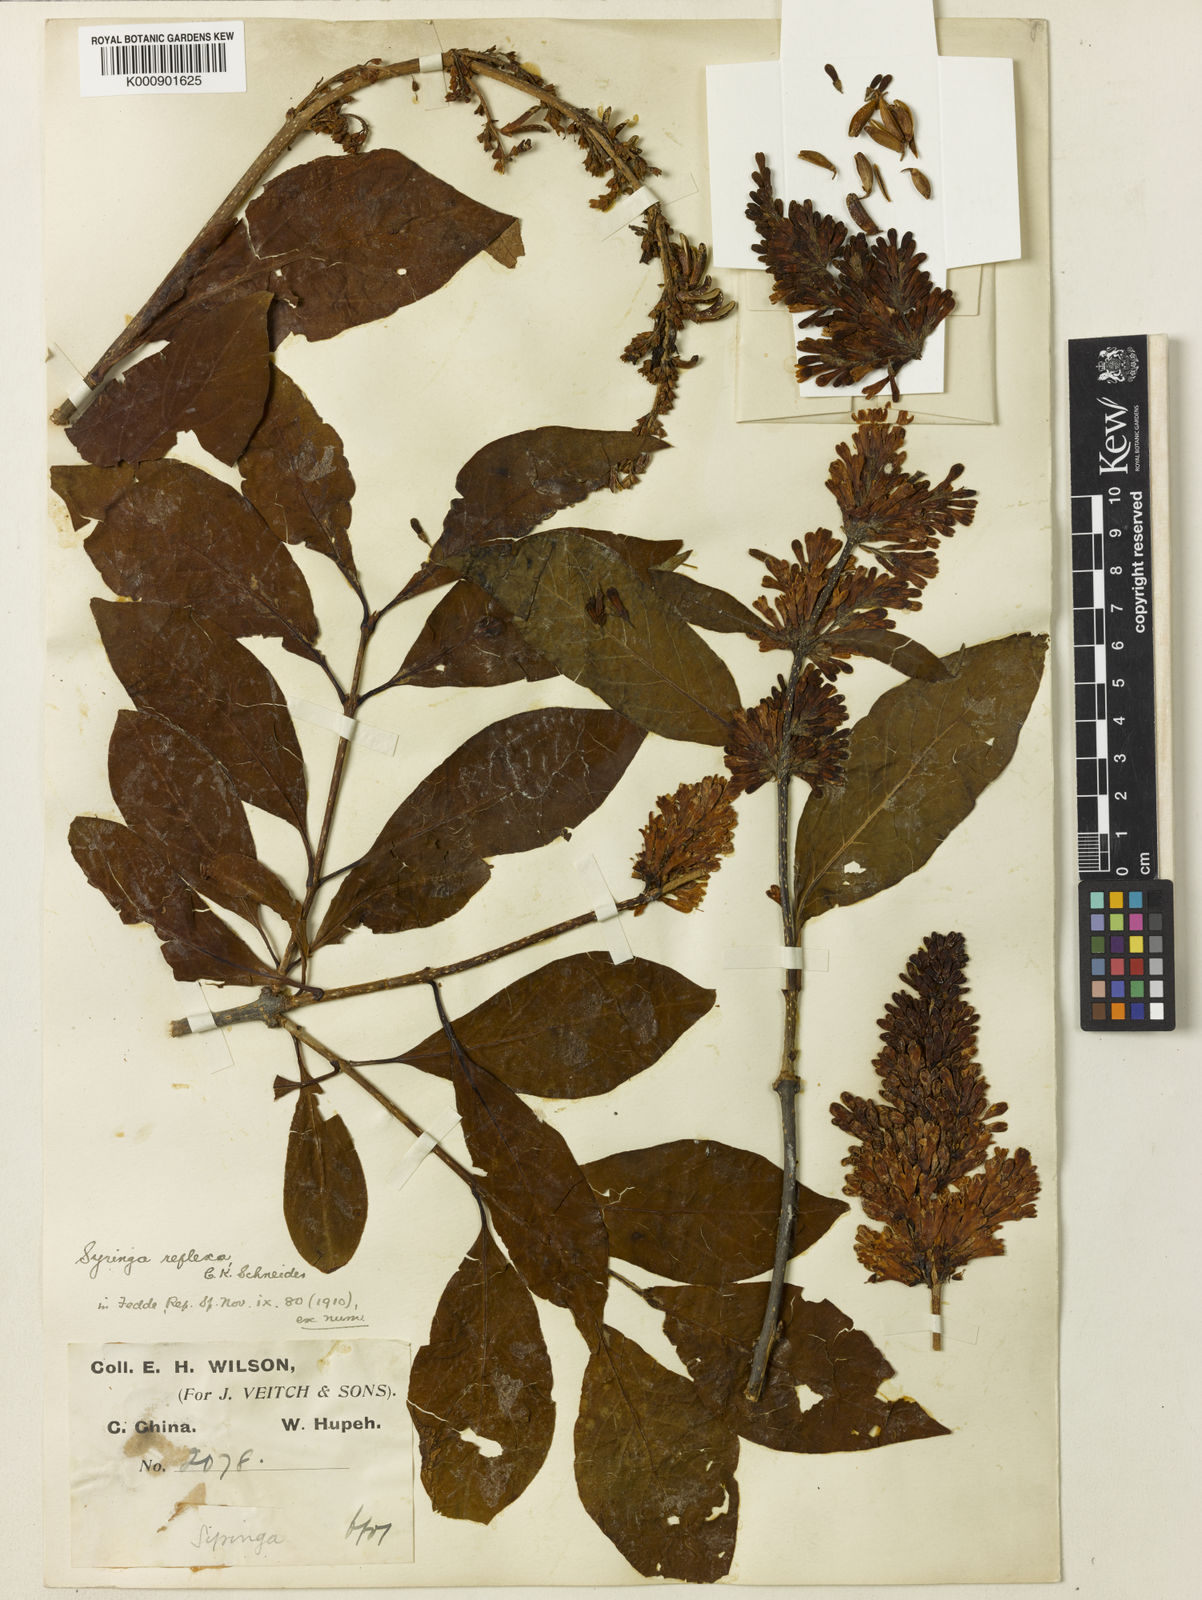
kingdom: Plantae
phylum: Tracheophyta
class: Magnoliopsida
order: Lamiales
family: Oleaceae
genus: Syringa
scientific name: Syringa komarowii
